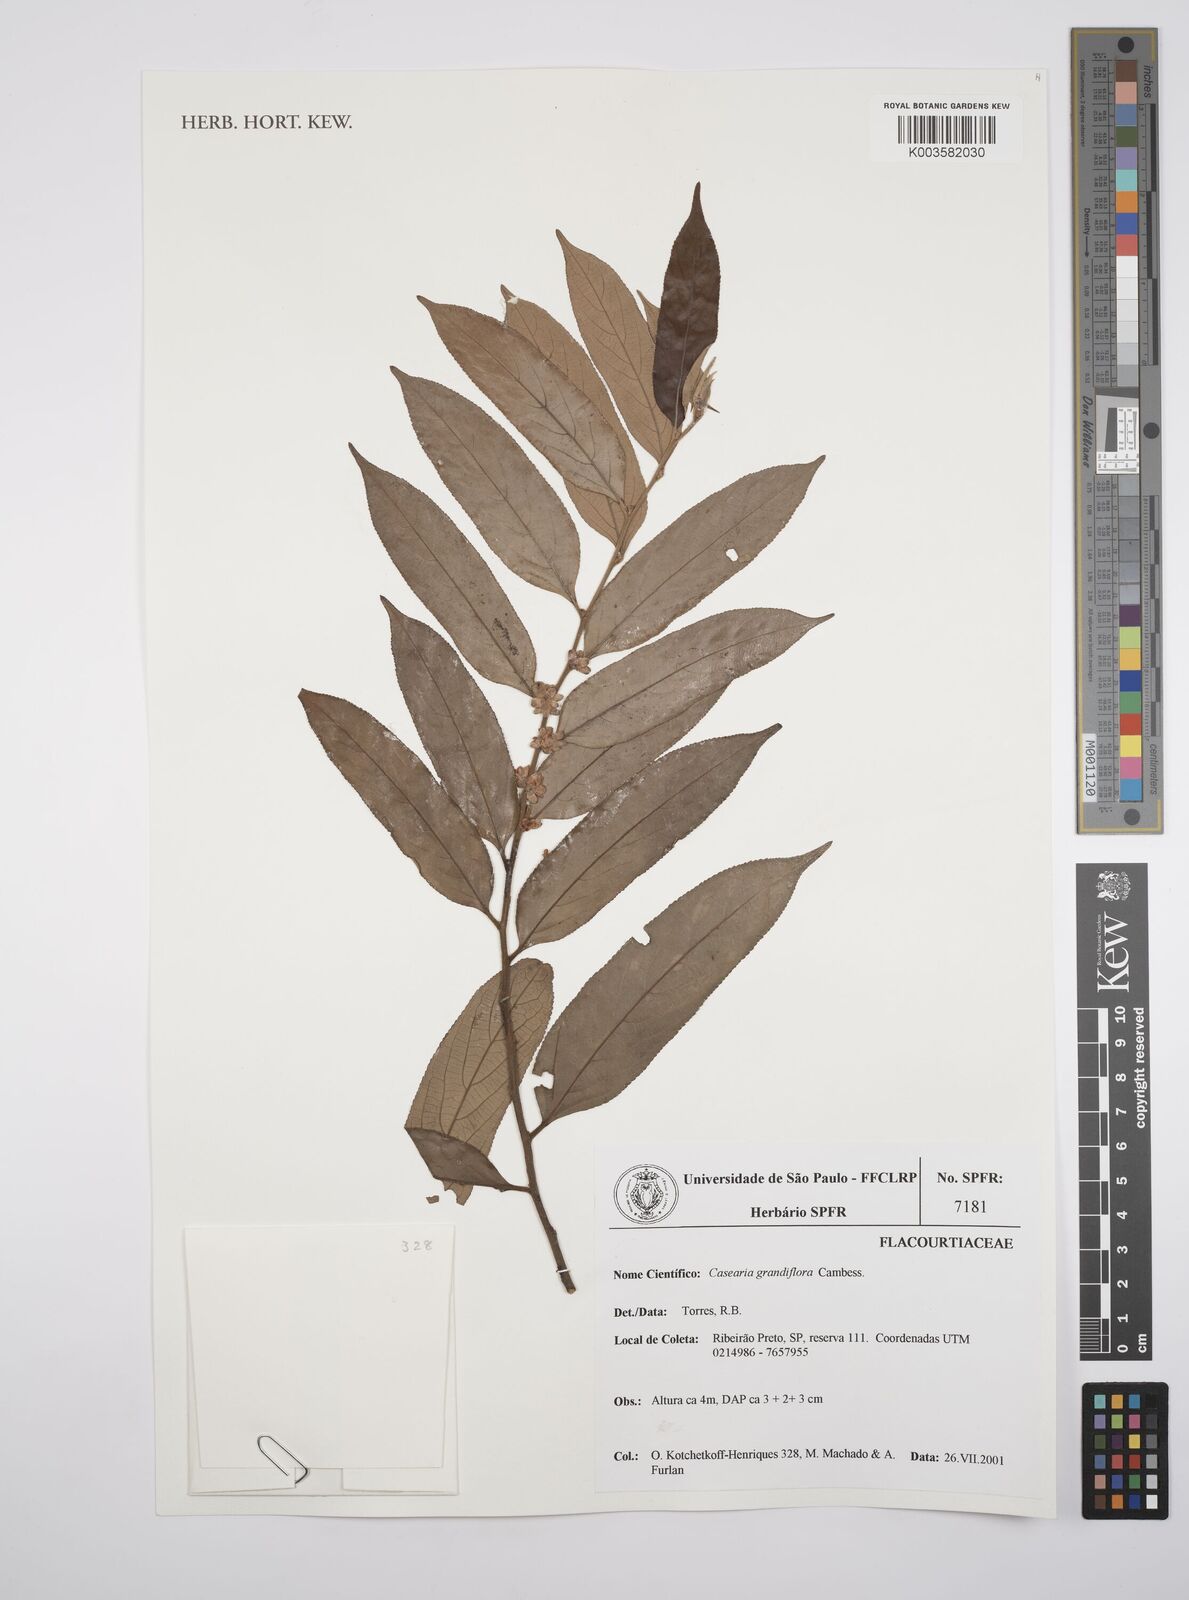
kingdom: Plantae
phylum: Tracheophyta
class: Magnoliopsida
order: Malpighiales
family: Salicaceae
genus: Casearia
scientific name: Casearia grandiflora
